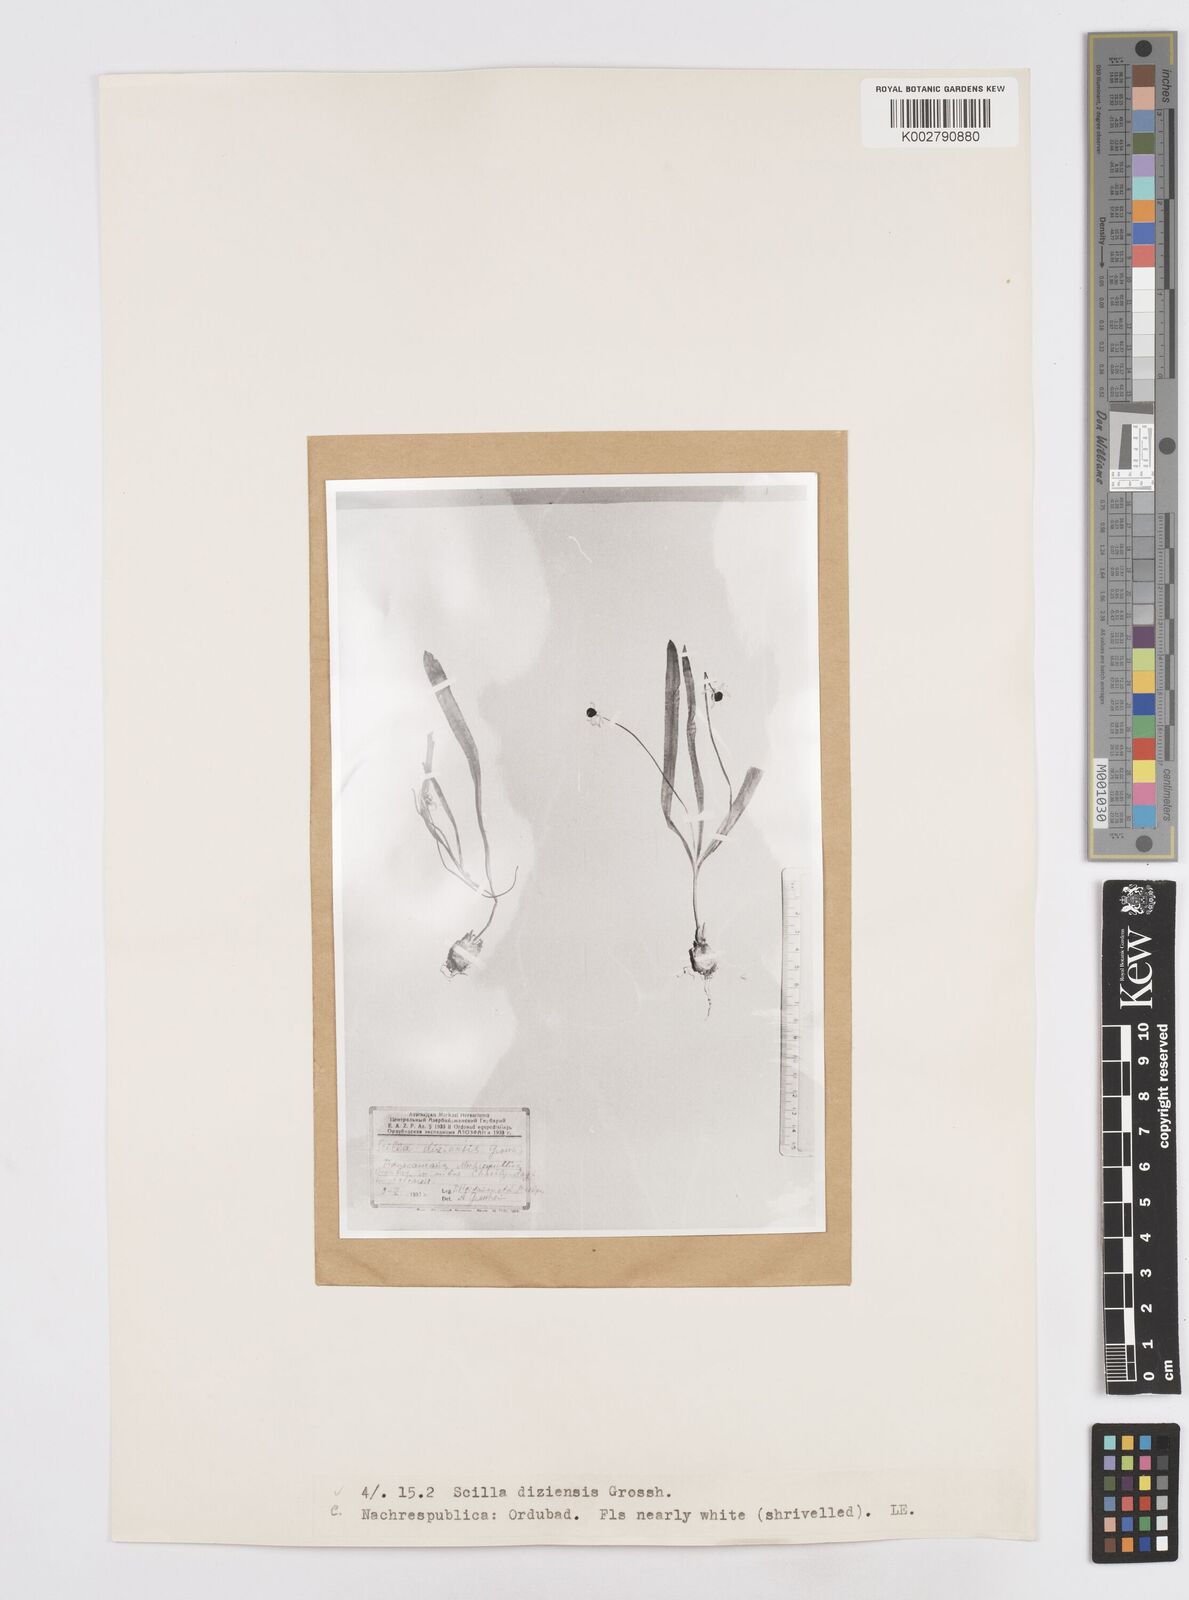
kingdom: Plantae
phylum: Tracheophyta
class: Liliopsida
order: Asparagales
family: Asparagaceae
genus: Scilla
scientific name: Scilla mischtschenkoana
